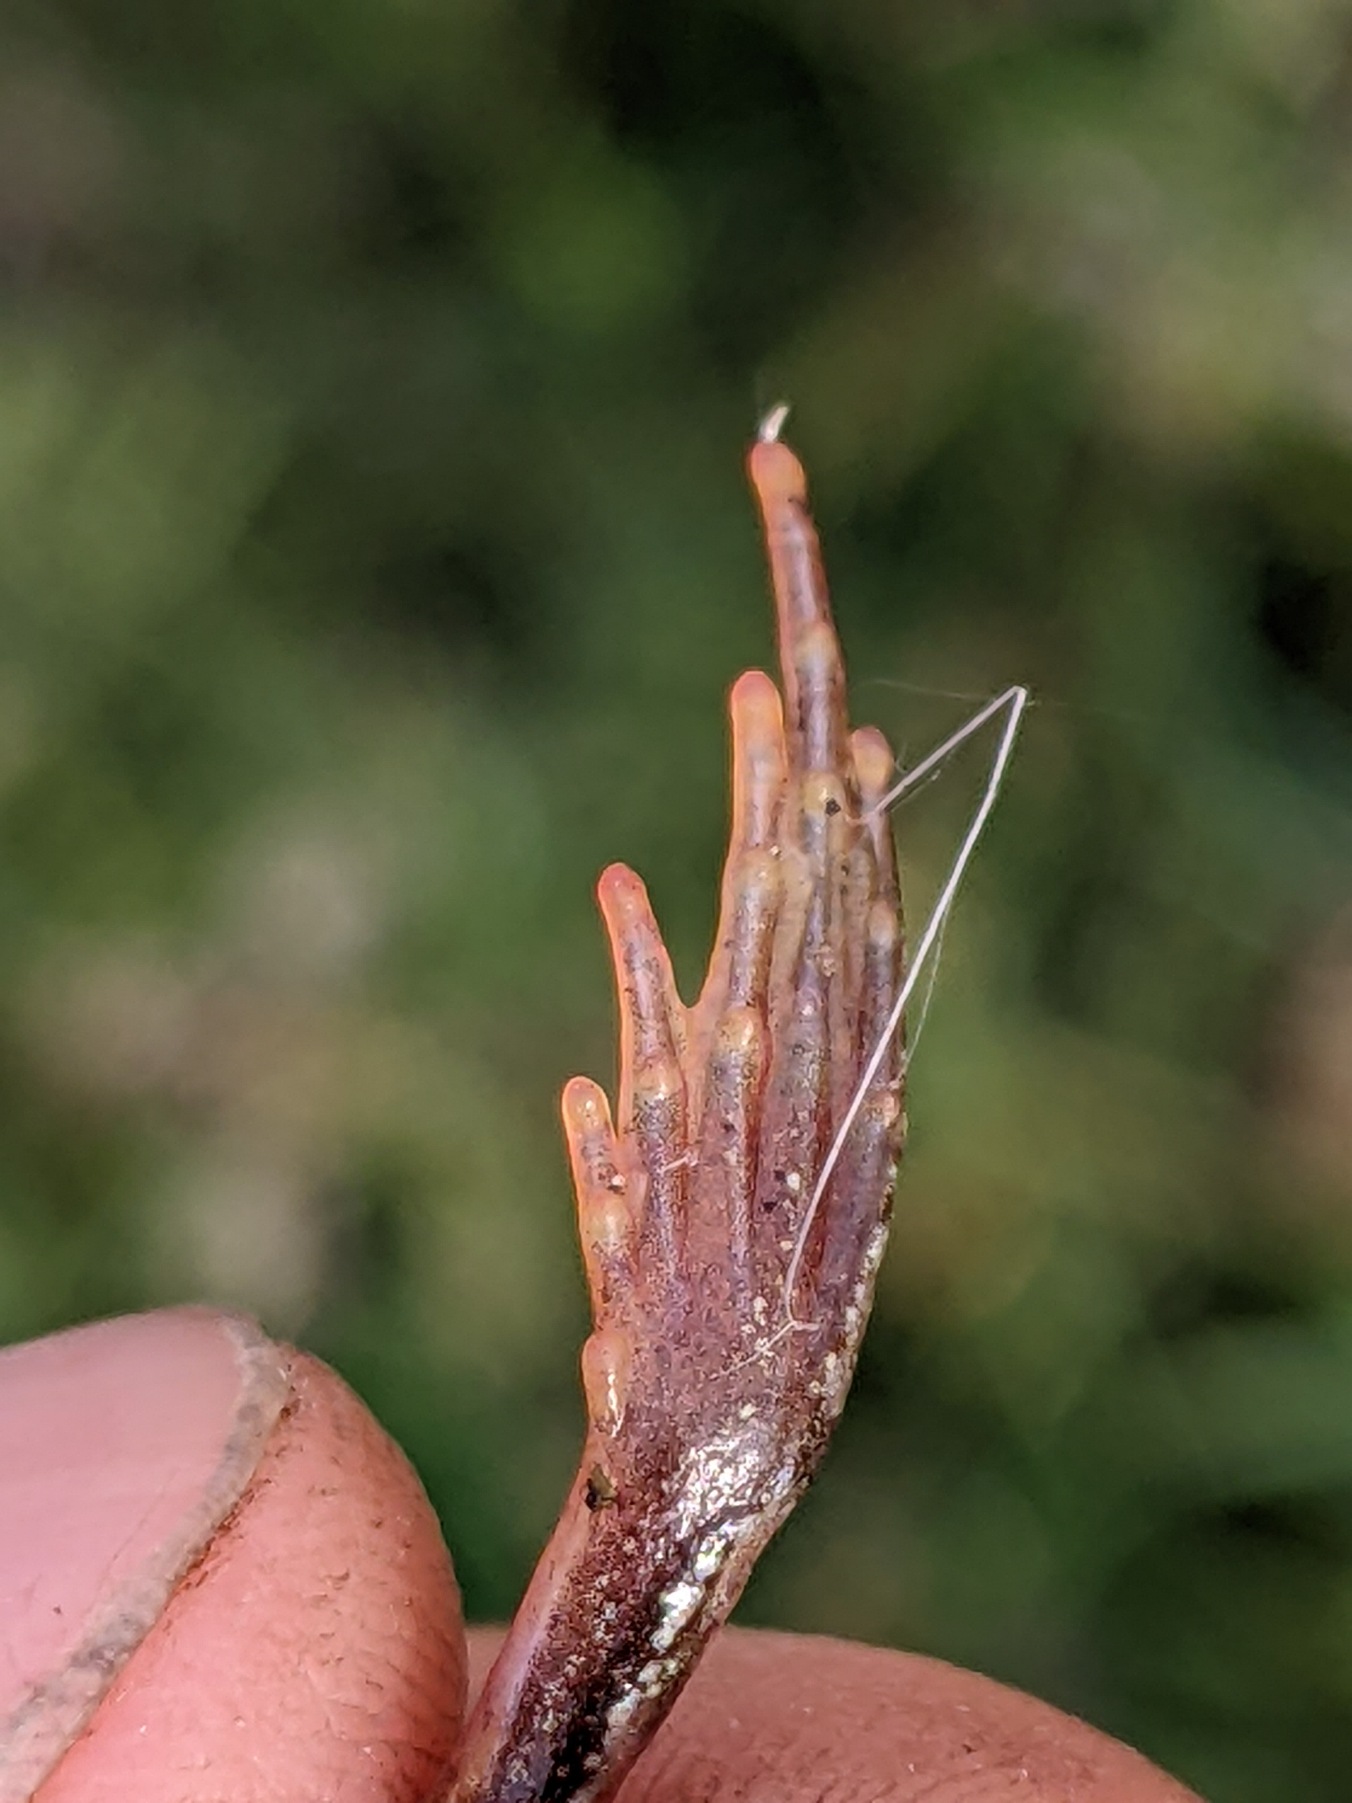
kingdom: Animalia
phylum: Chordata
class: Amphibia
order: Anura
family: Ranidae
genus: Rana
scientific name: Rana temporaria
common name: Butsnudet frø
